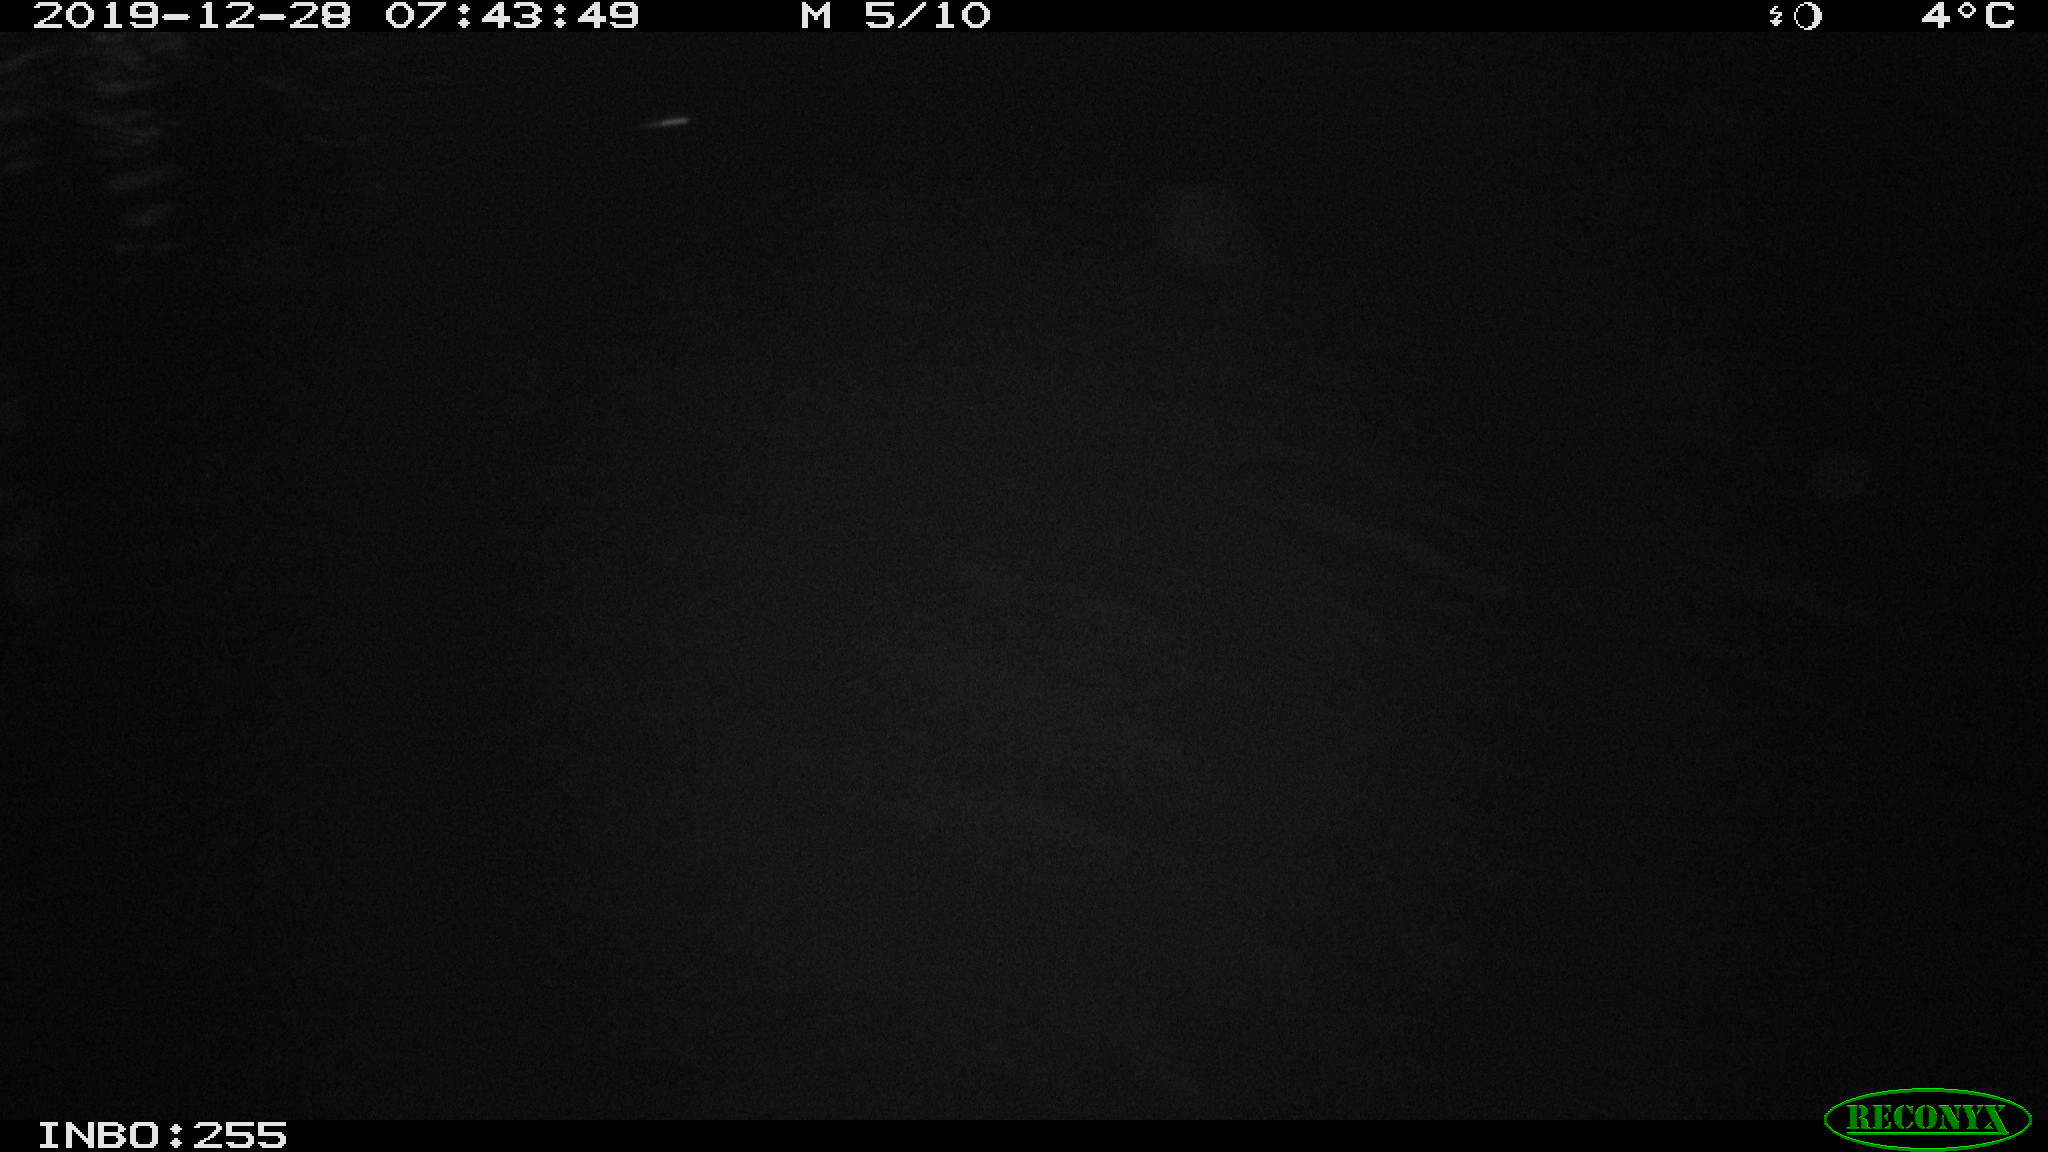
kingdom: Animalia
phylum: Chordata
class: Aves
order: Anseriformes
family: Anatidae
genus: Anas
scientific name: Anas platyrhynchos
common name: Mallard
